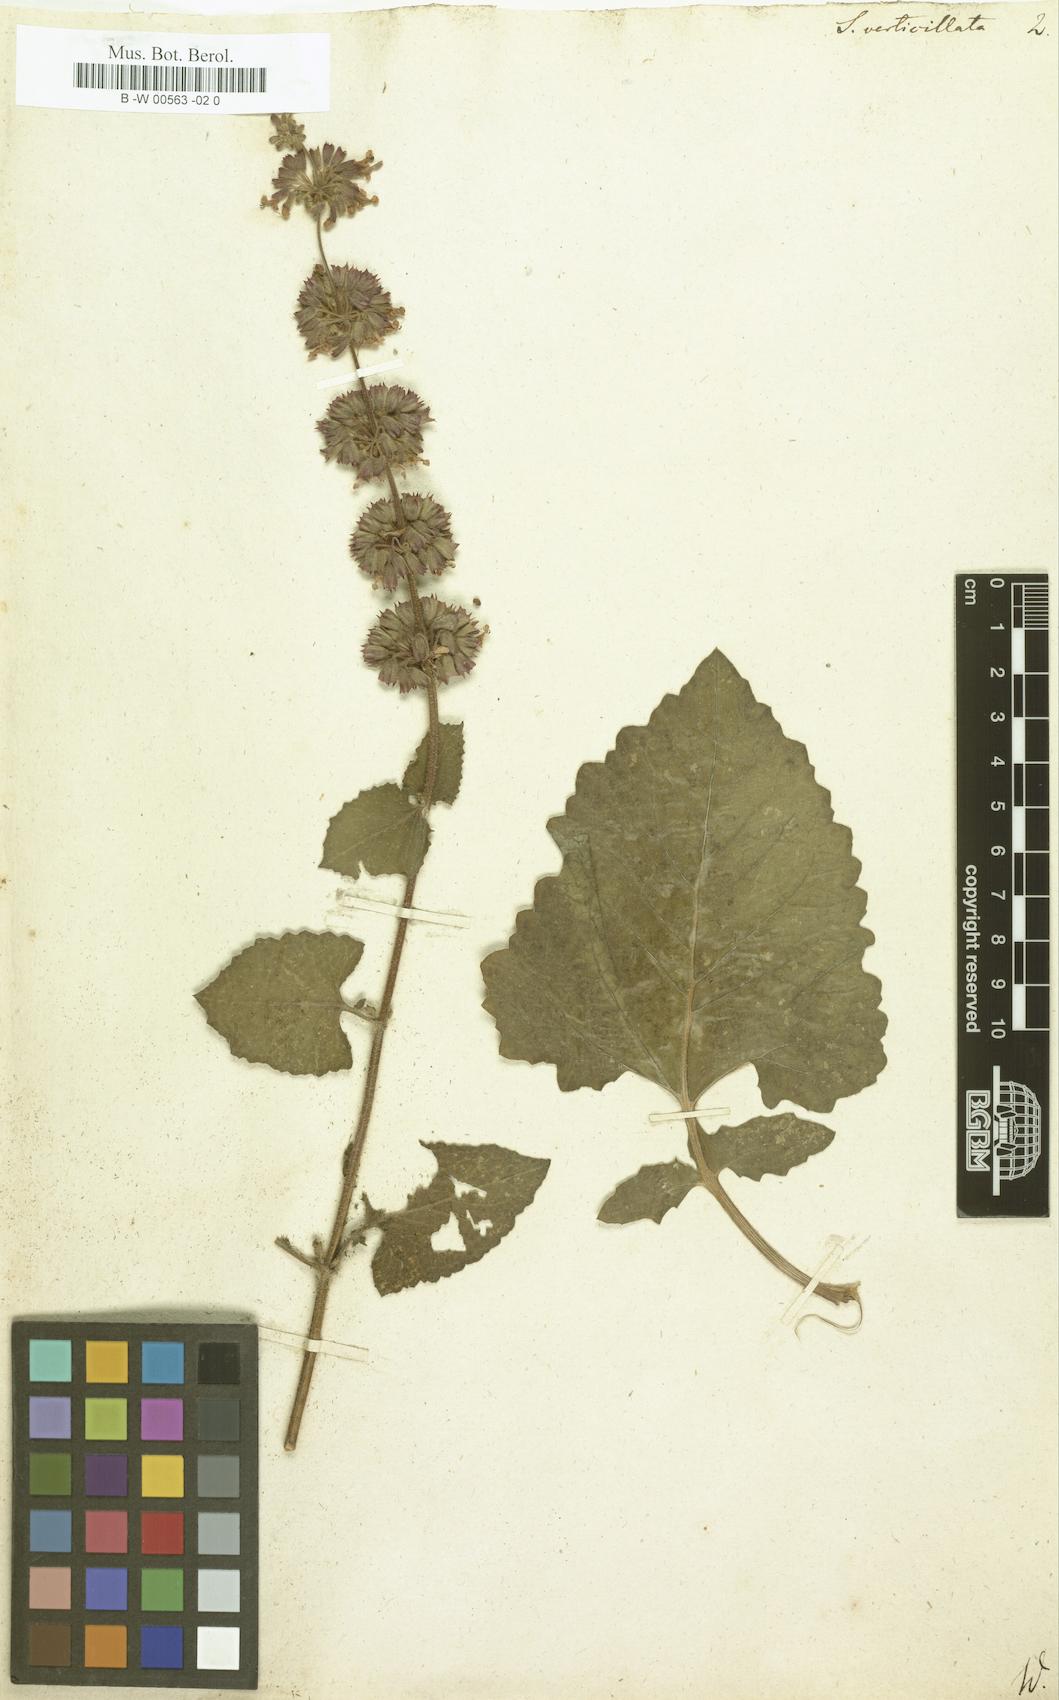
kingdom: Plantae
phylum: Tracheophyta
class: Magnoliopsida
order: Lamiales
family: Lamiaceae
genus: Salvia
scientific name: Salvia verticillata
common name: Whorled clary
